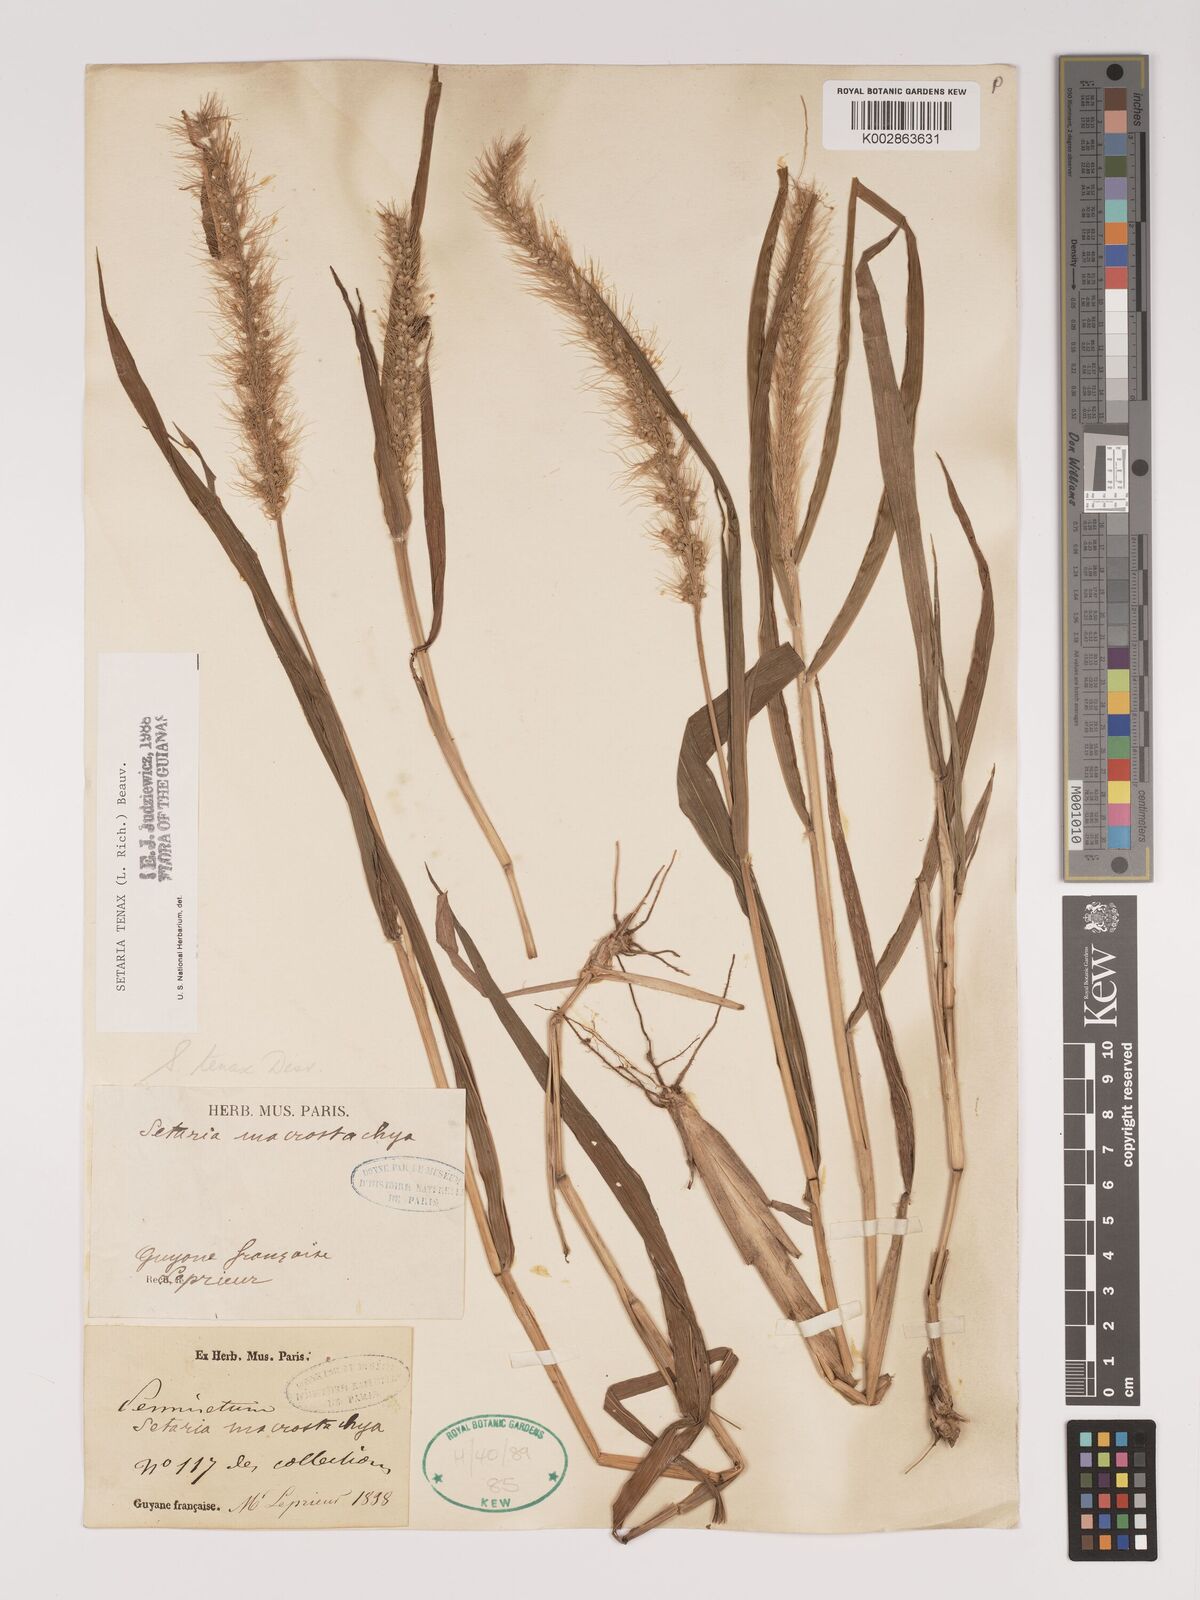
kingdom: Plantae
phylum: Tracheophyta
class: Liliopsida
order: Poales
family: Poaceae
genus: Setaria
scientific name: Setaria tenax
